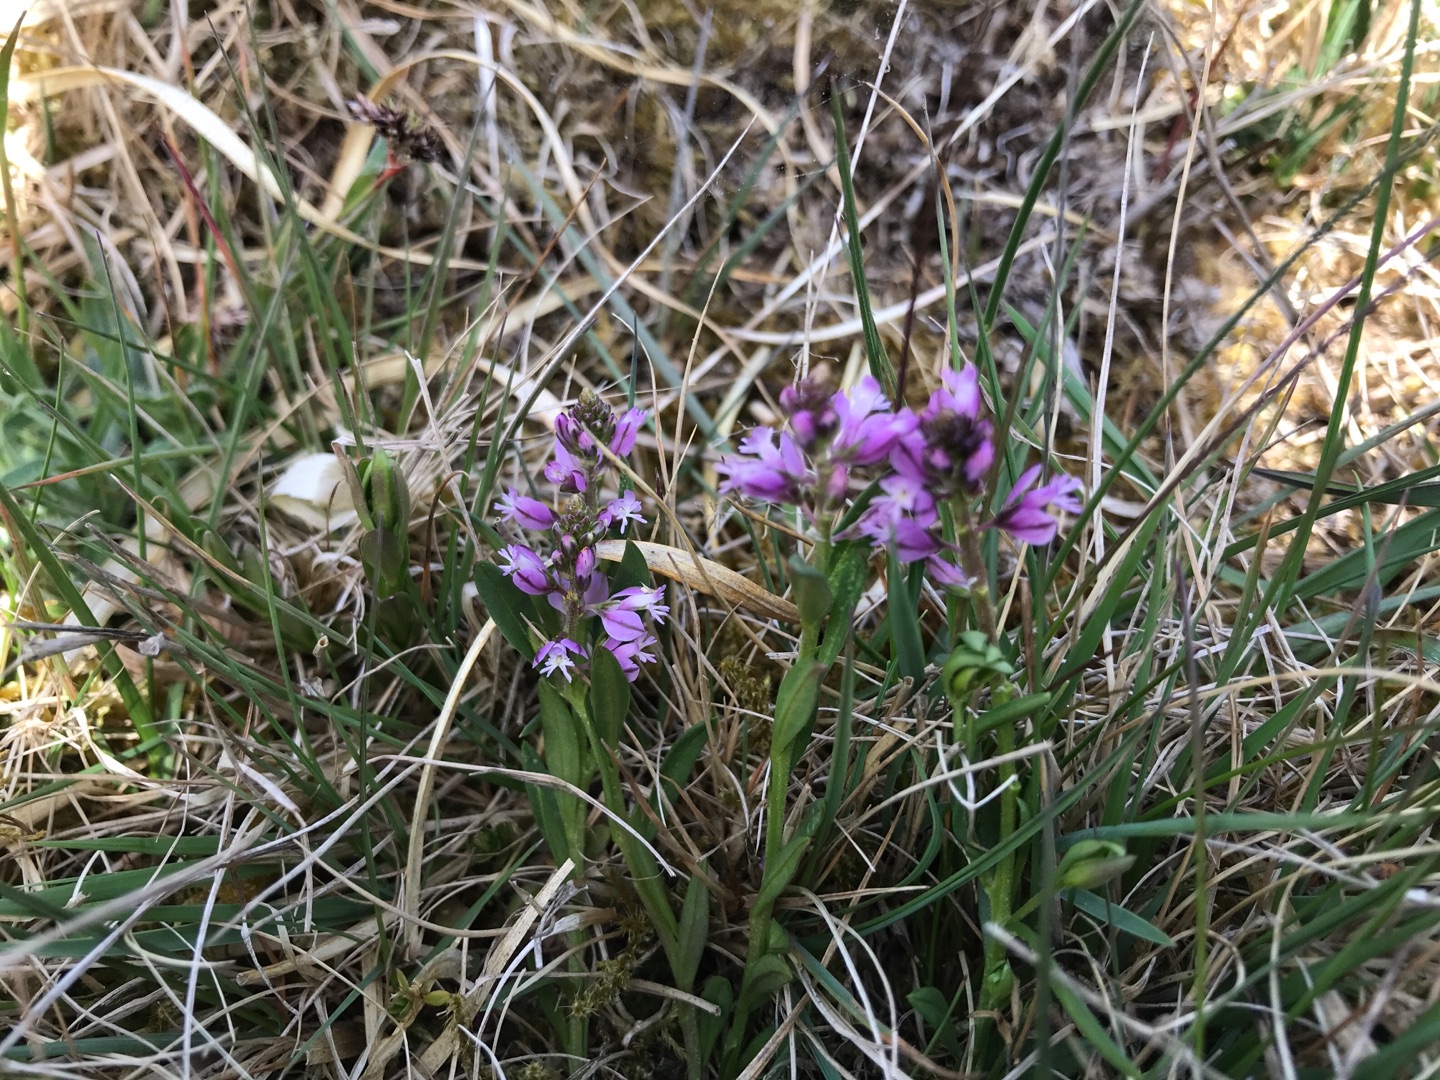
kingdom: Plantae
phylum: Tracheophyta
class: Magnoliopsida
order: Fabales
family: Polygalaceae
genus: Polygala
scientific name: Polygala vulgaris
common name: Almindelig mælkeurt
